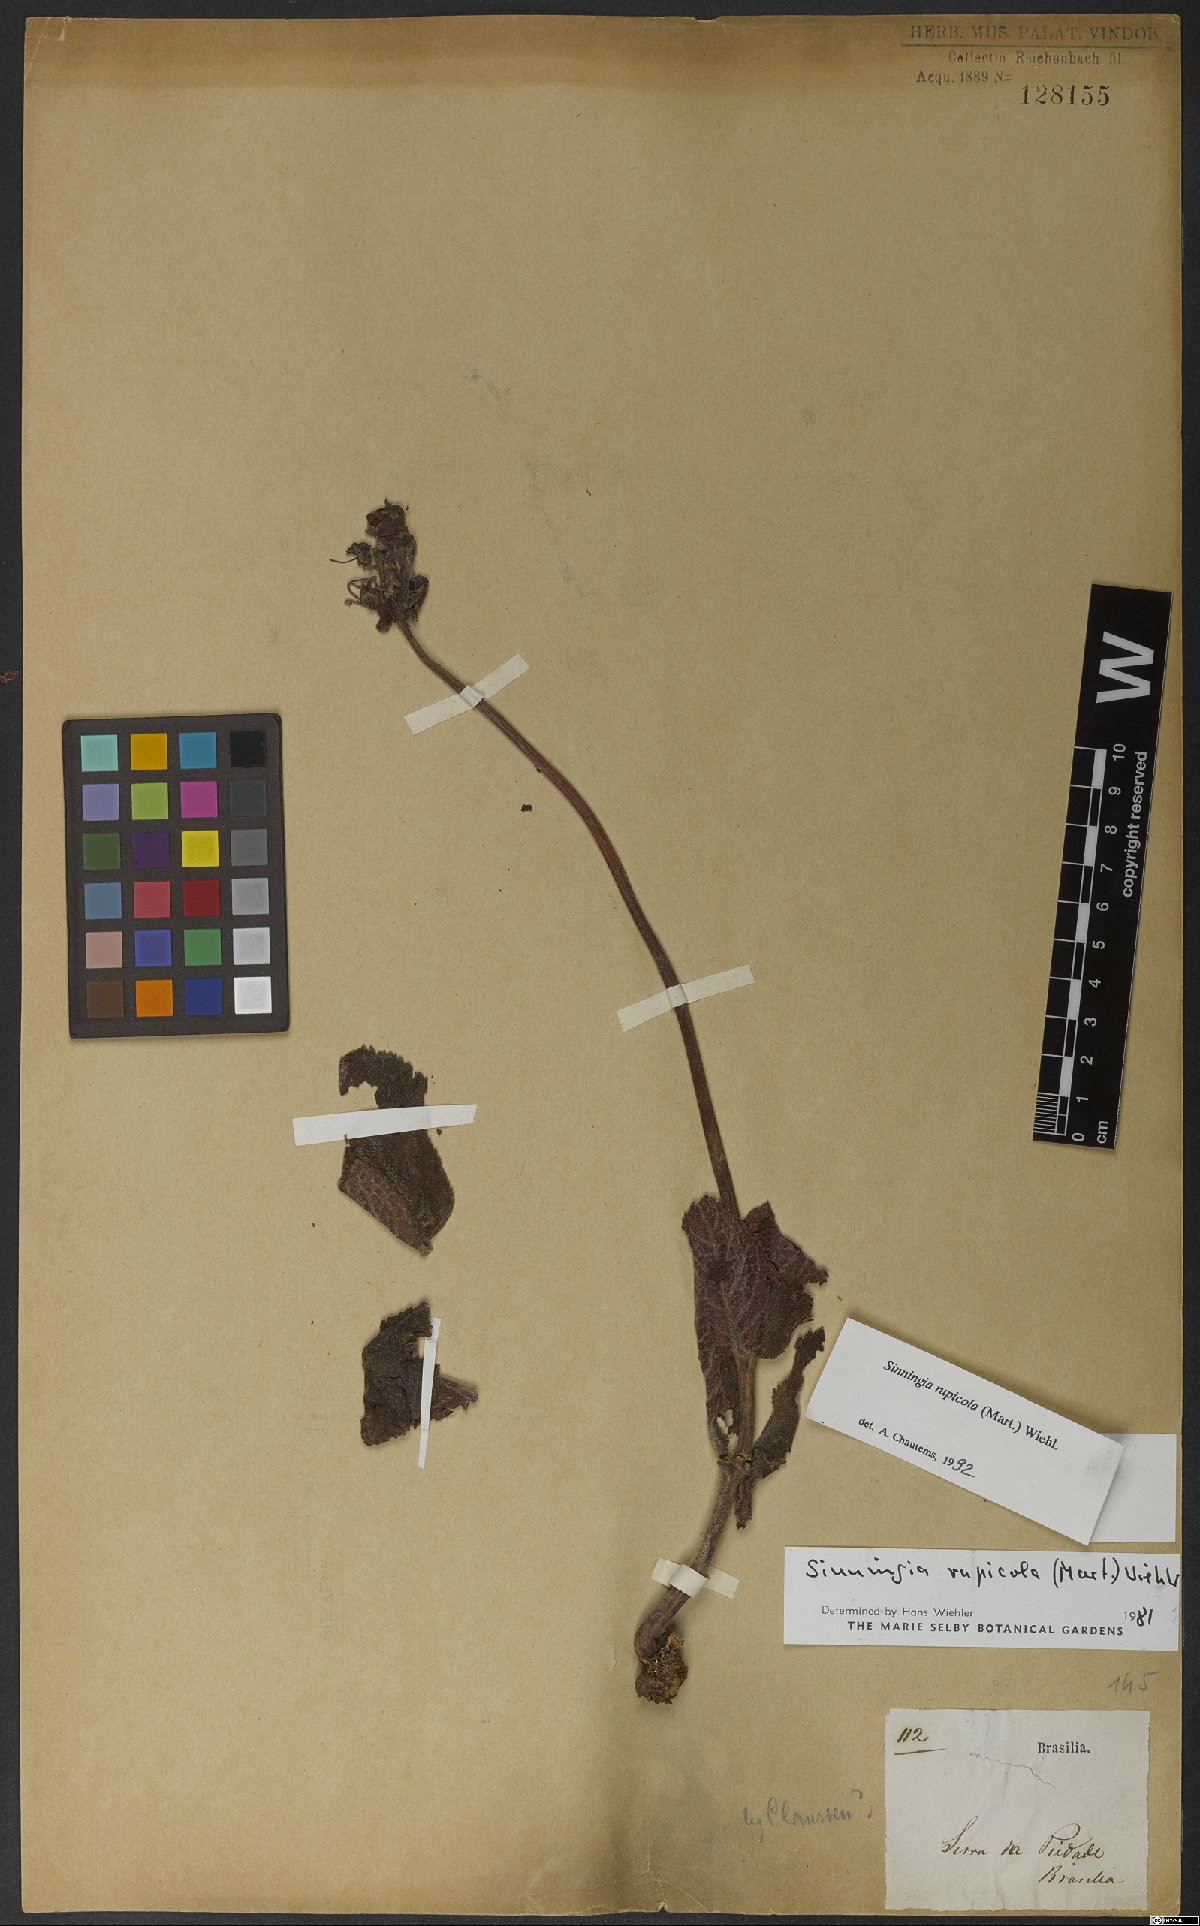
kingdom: Plantae
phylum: Tracheophyta
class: Magnoliopsida
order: Lamiales
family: Gesneriaceae
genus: Sinningia
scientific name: Sinningia rupicola
